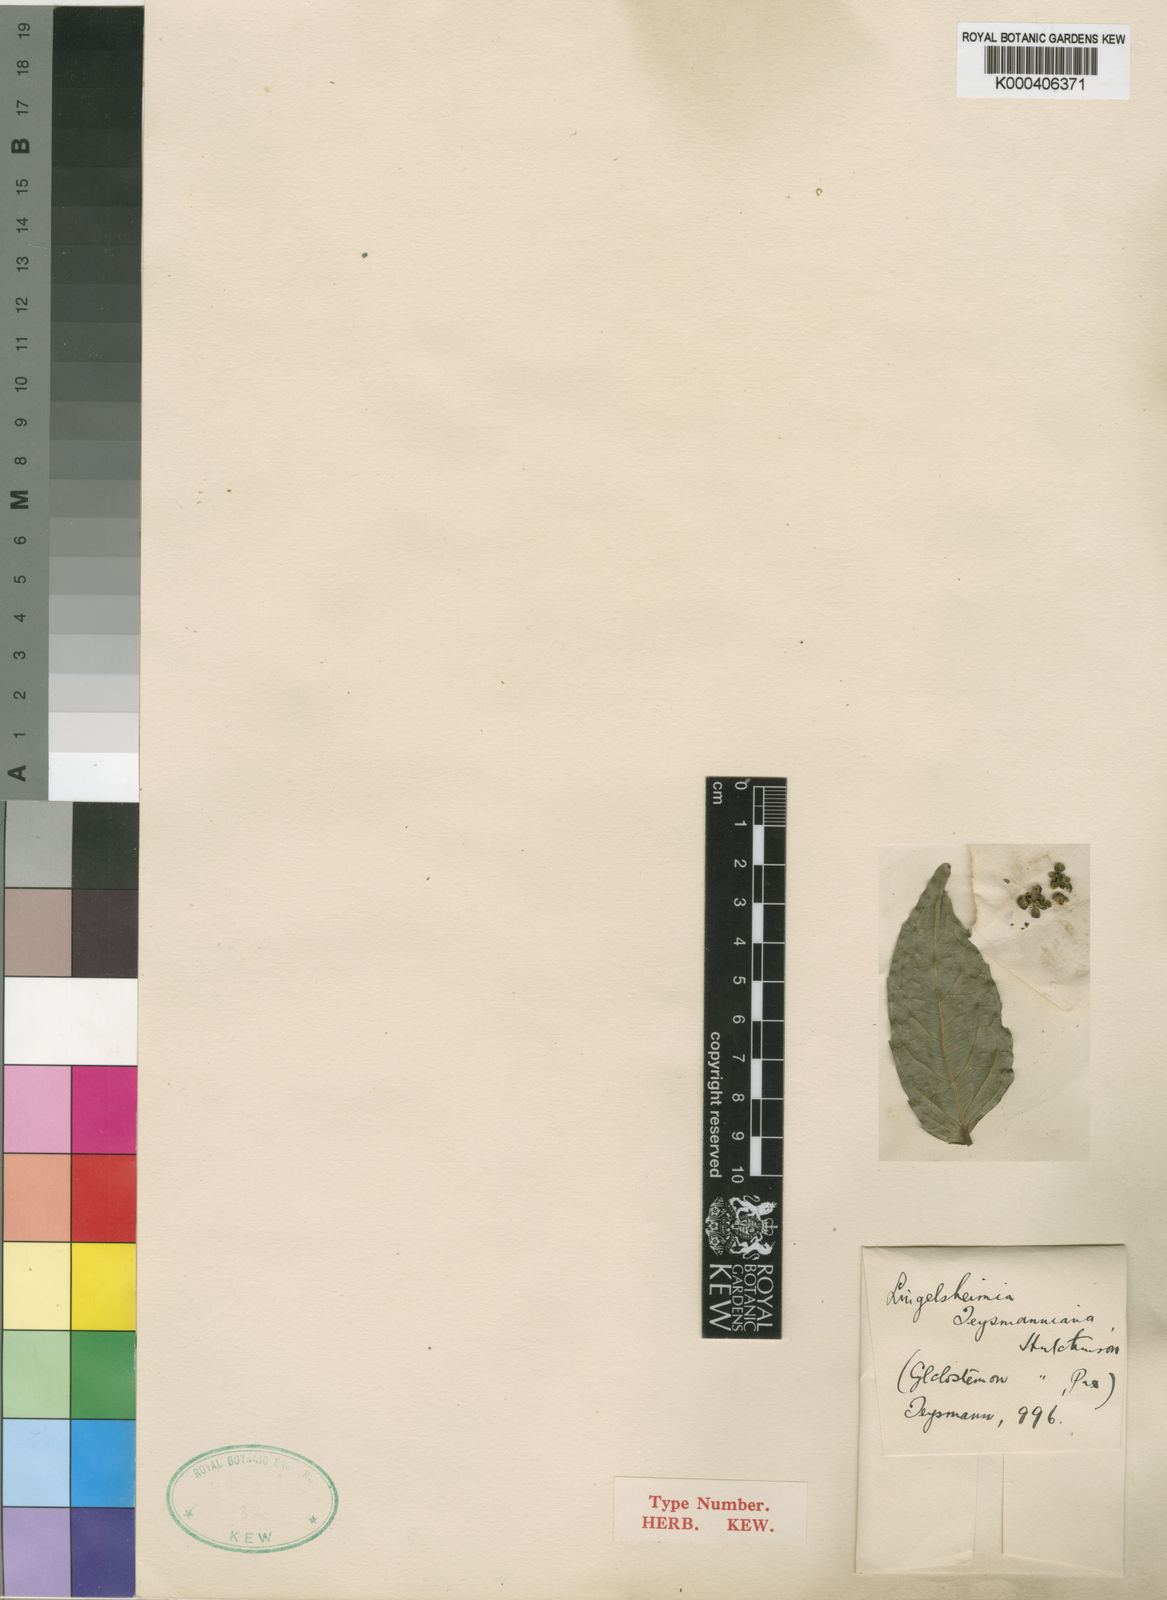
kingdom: Plantae
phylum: Tracheophyta
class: Magnoliopsida
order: Malpighiales
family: Putranjivaceae
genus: Drypetes
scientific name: Drypetes tessmanniana
